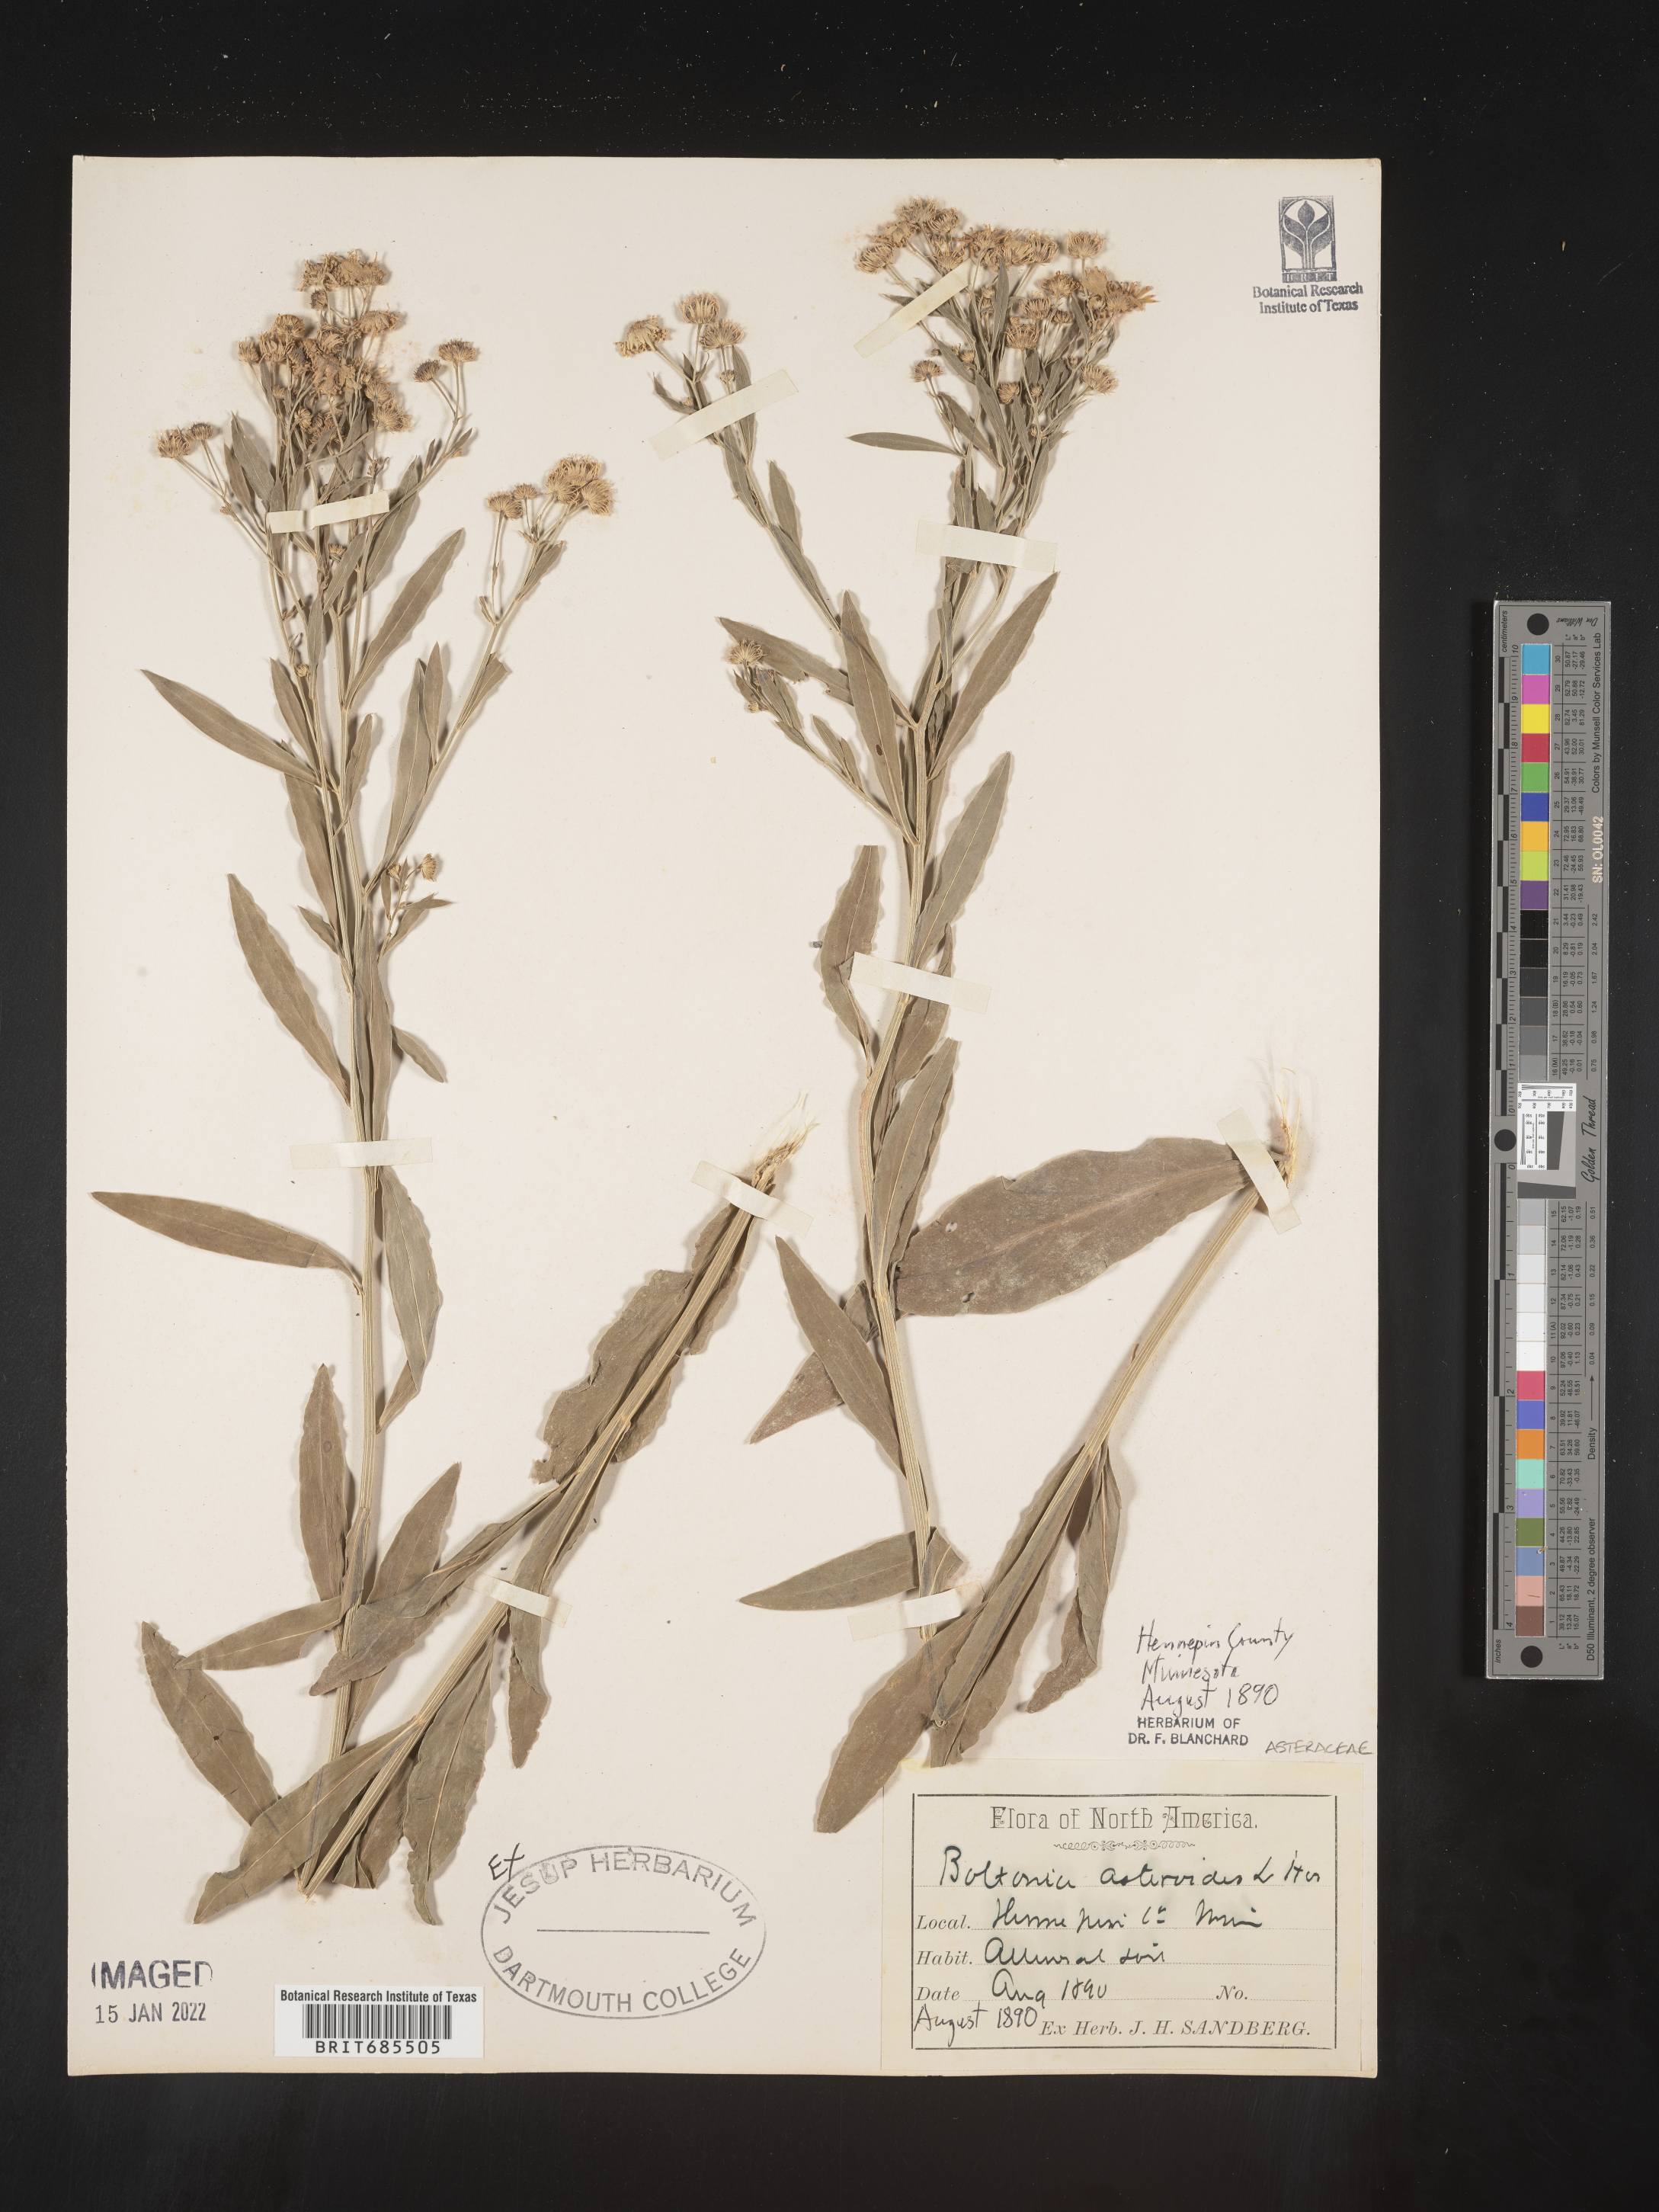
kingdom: Plantae
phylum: Tracheophyta
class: Magnoliopsida
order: Asterales
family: Asteraceae
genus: Boltonia
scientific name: Boltonia asteroides
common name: False chamomile
